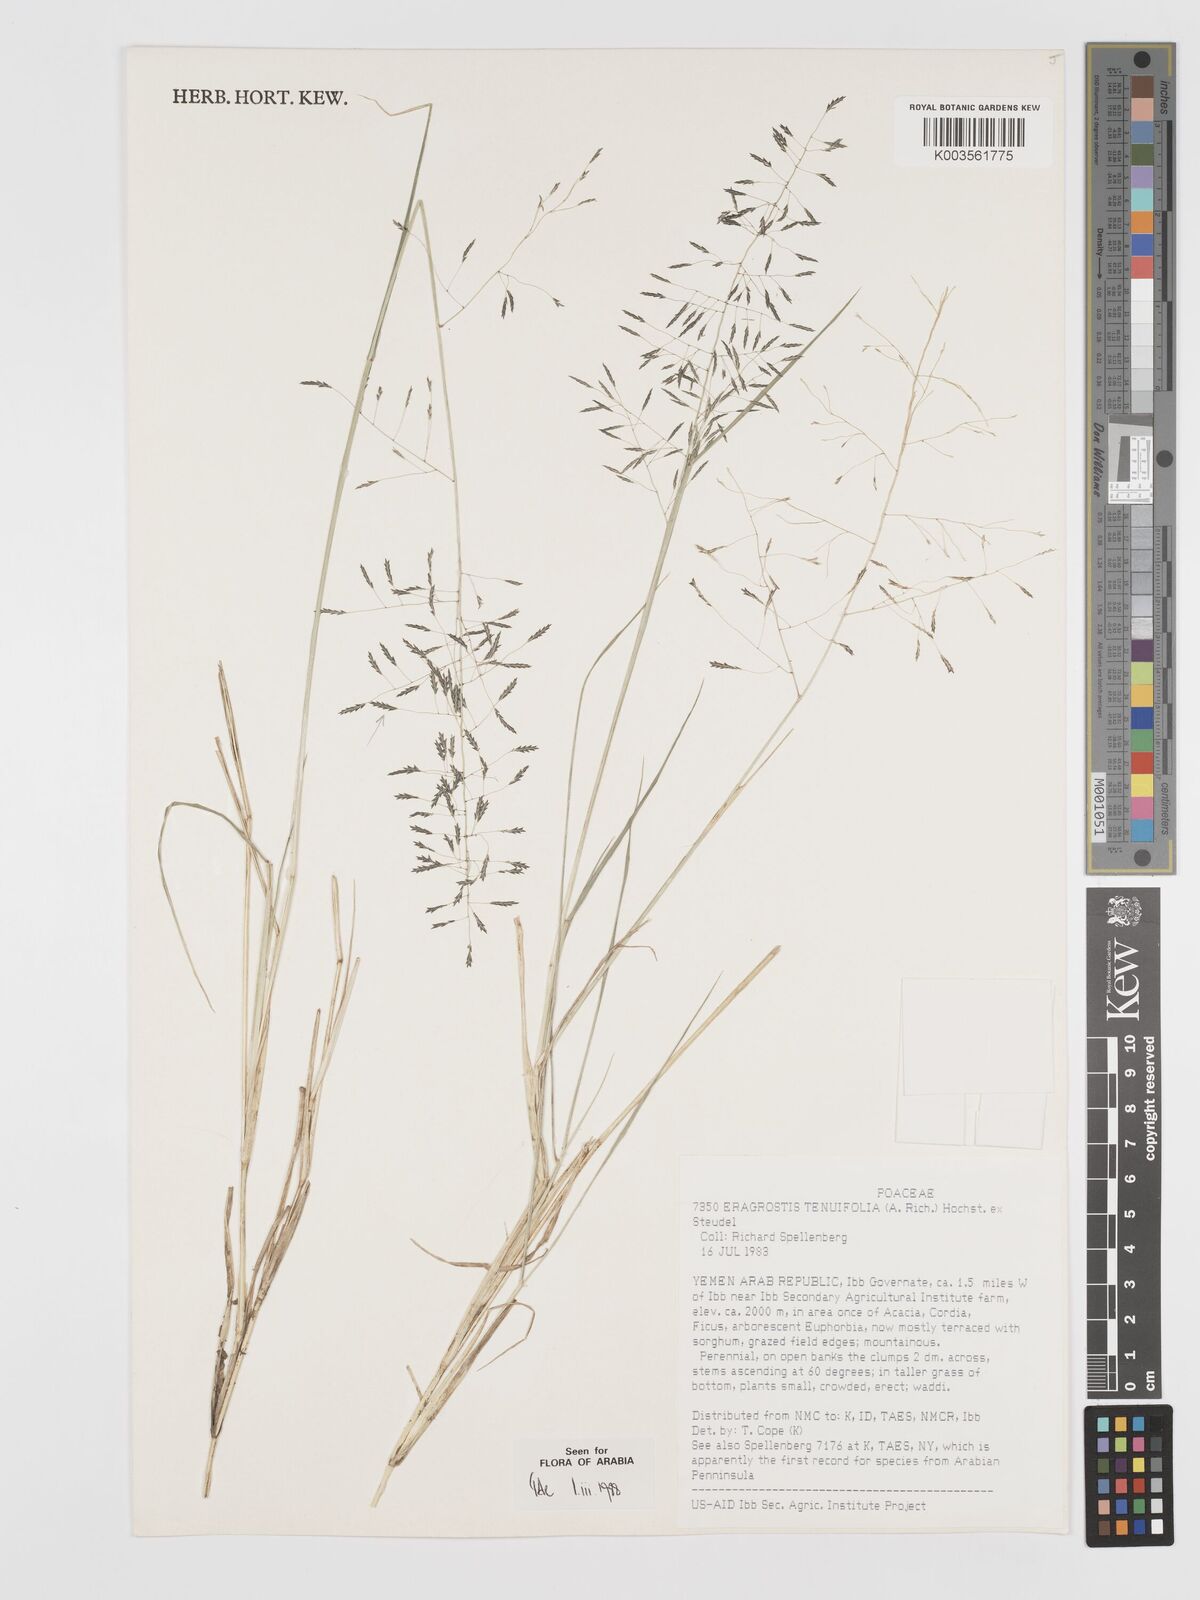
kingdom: Plantae
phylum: Tracheophyta
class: Liliopsida
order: Poales
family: Poaceae
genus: Eragrostis
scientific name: Eragrostis tenuifolia
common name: Elastic grass
